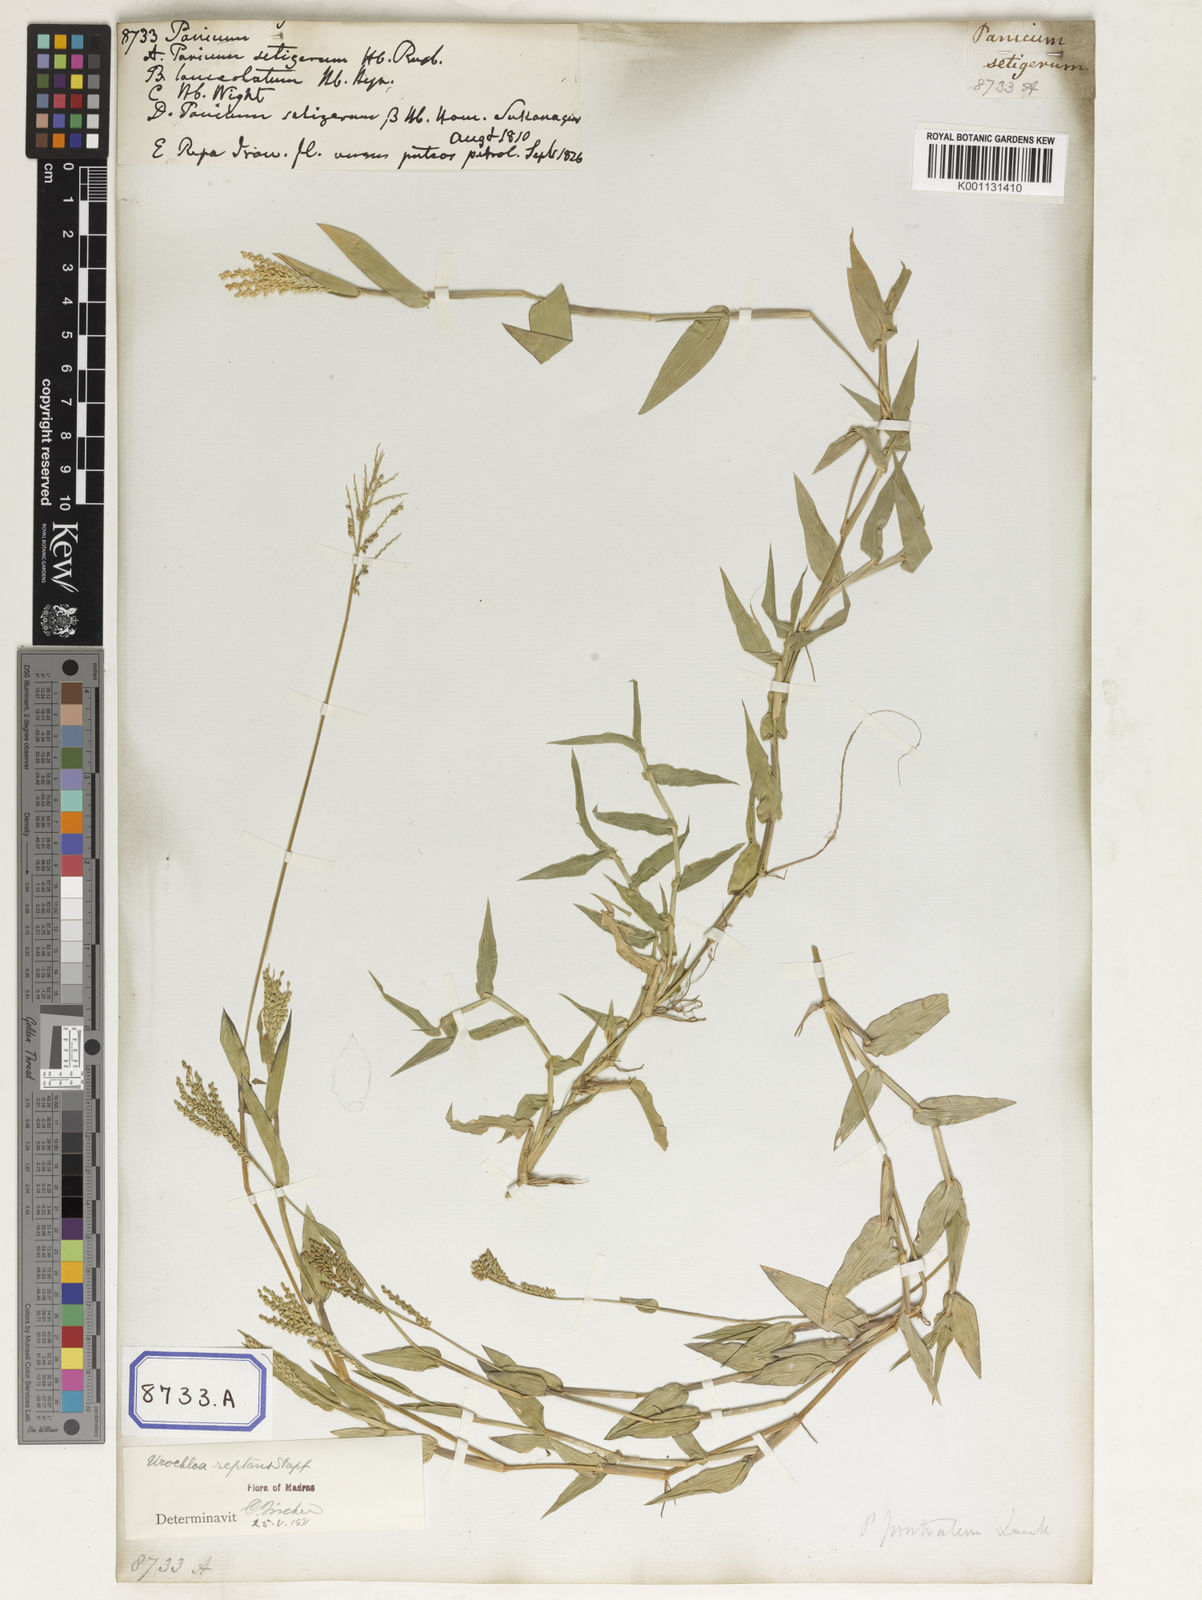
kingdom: Plantae
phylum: Tracheophyta
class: Liliopsida
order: Poales
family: Poaceae
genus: Panicum
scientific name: Panicum
